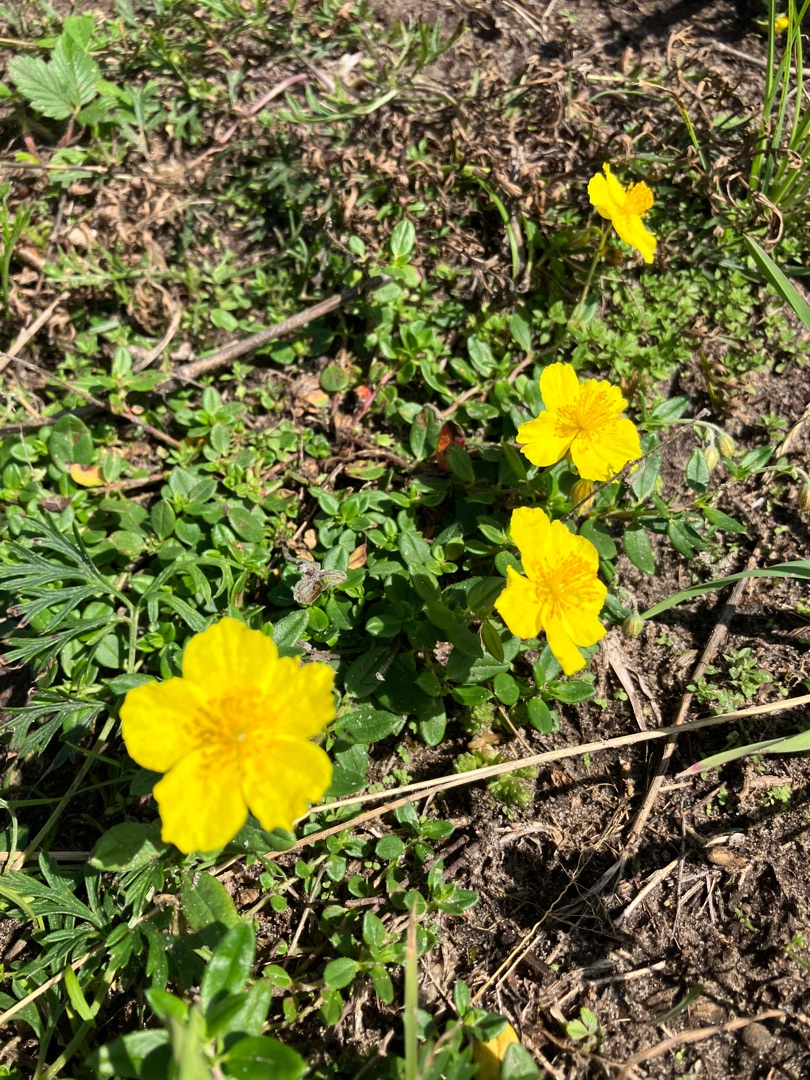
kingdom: Plantae
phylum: Tracheophyta
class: Magnoliopsida
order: Malvales
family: Cistaceae
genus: Helianthemum
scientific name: Helianthemum nummularium
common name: Soløje
